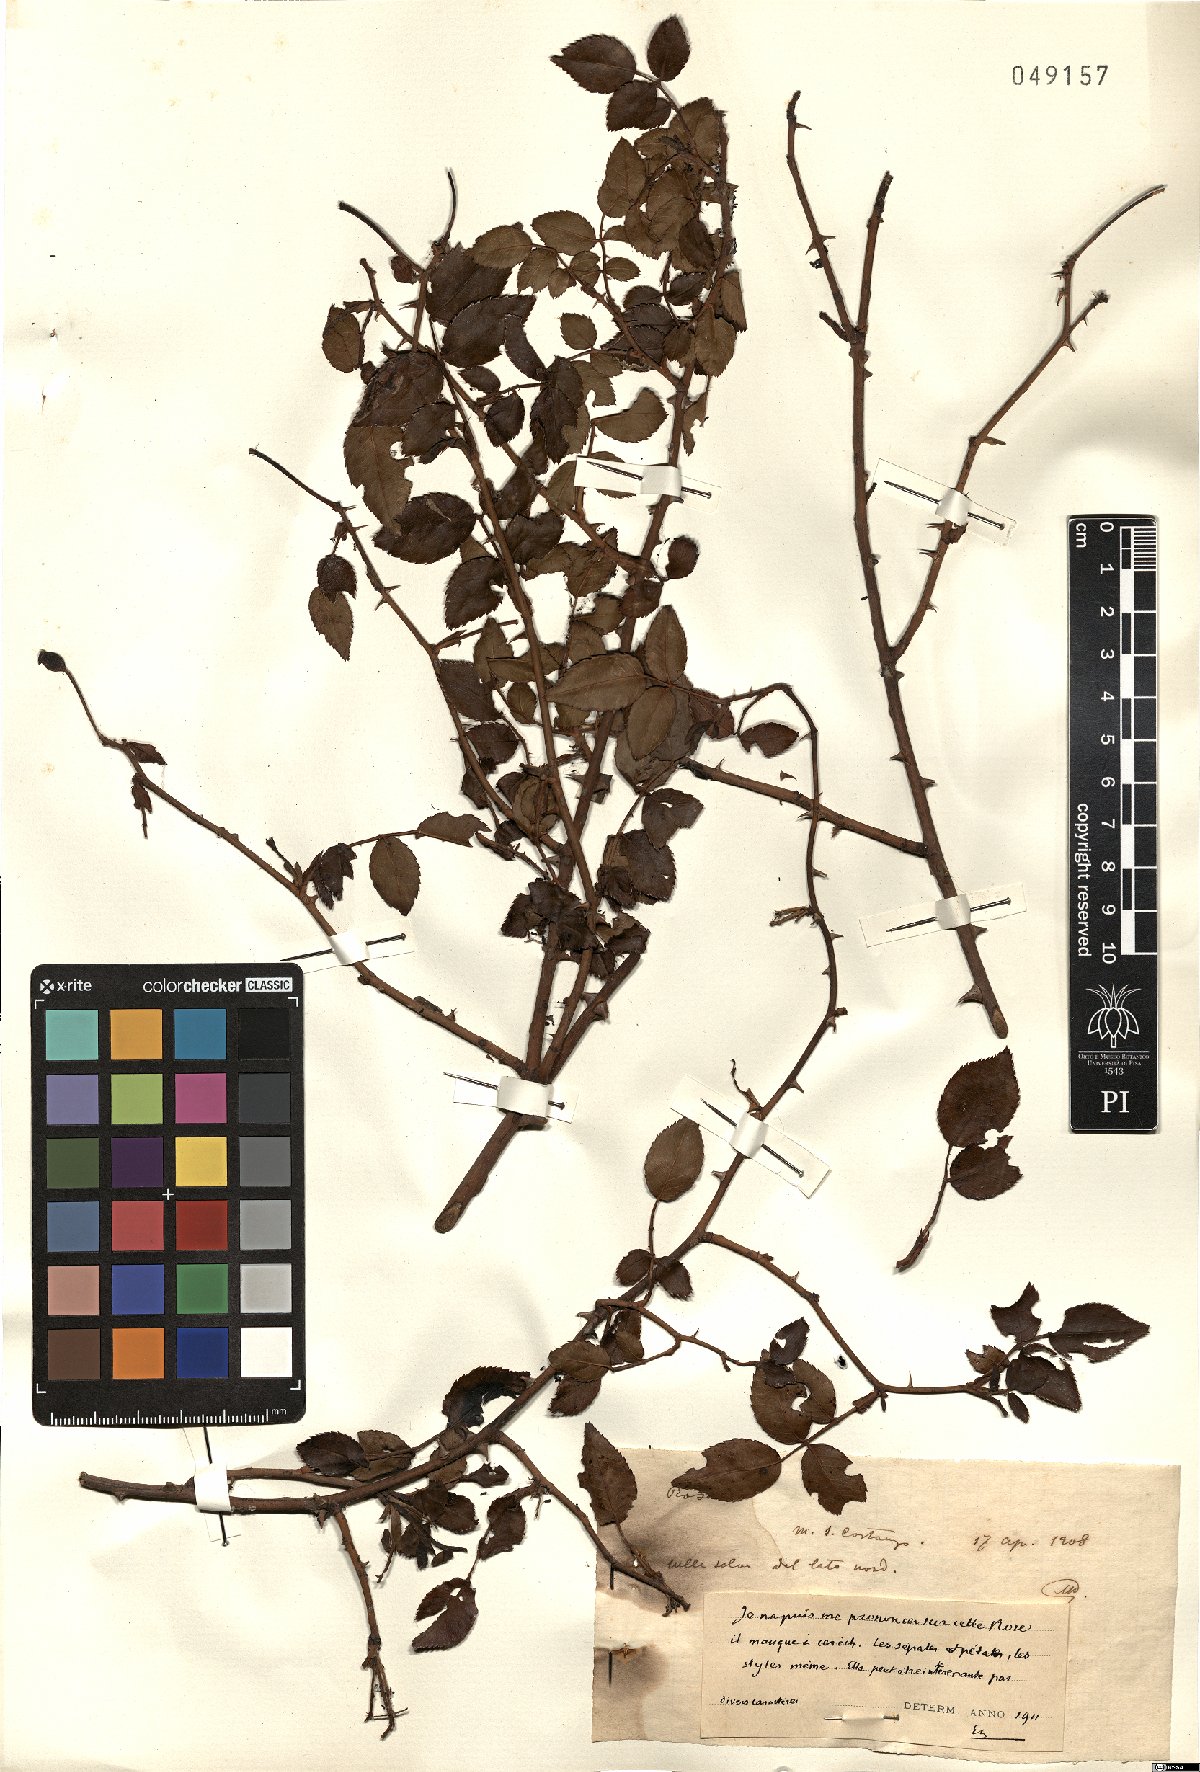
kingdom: Plantae
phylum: Tracheophyta
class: Magnoliopsida
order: Rosales
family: Rosaceae
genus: Rosa
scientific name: Rosa
